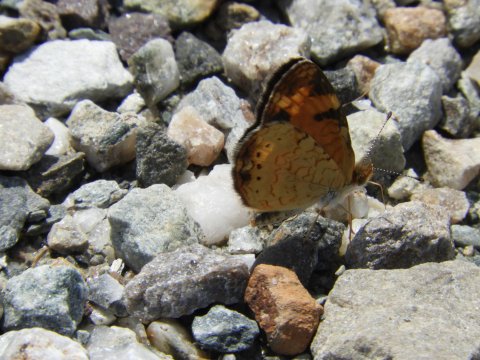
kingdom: Animalia
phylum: Arthropoda
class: Insecta
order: Lepidoptera
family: Nymphalidae
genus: Phyciodes
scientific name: Phyciodes
